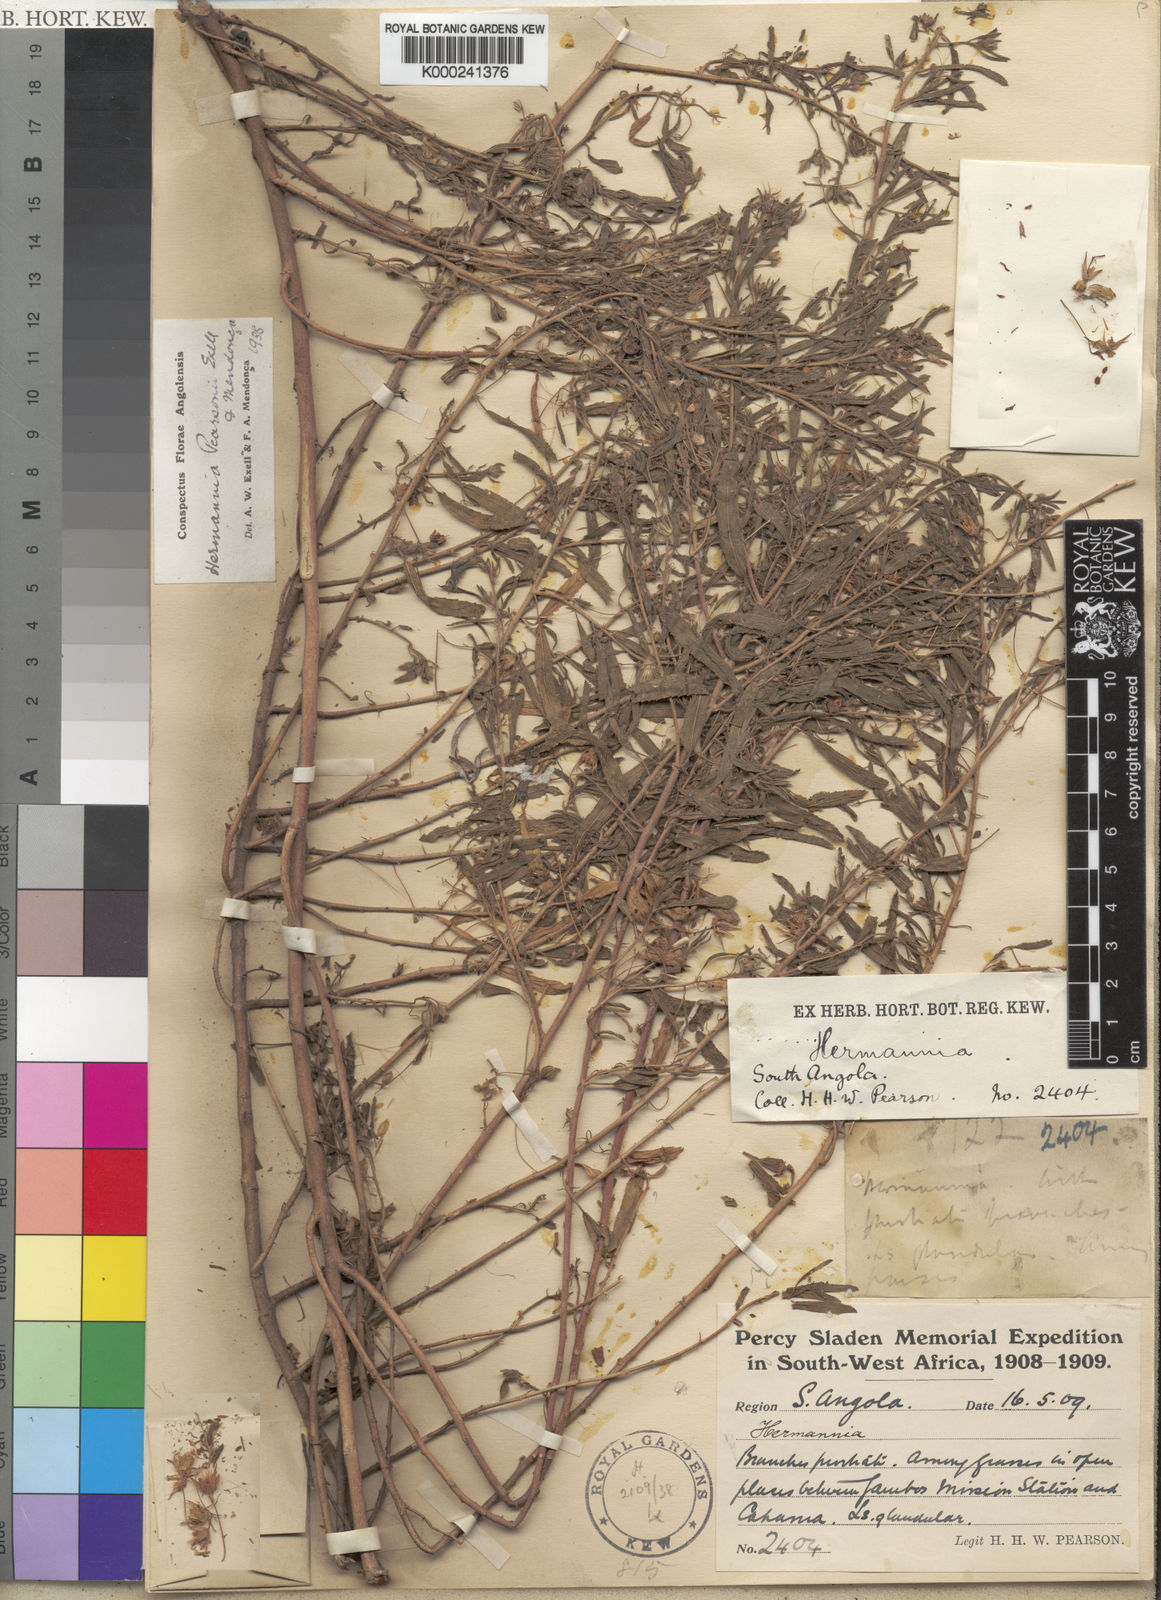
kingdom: Plantae
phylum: Tracheophyta
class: Magnoliopsida
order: Malvales
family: Malvaceae
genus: Hermannia
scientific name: Hermannia
